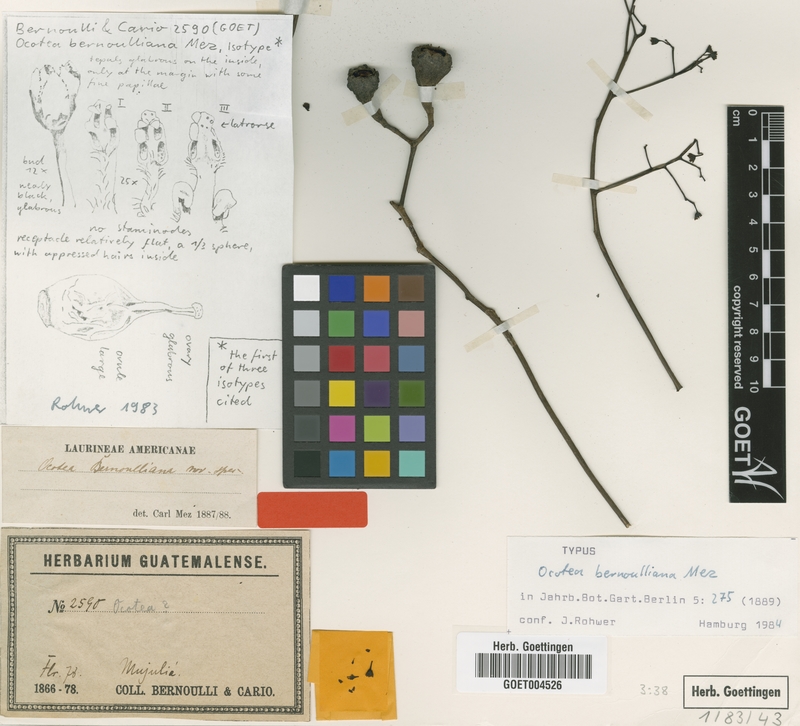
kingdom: Plantae
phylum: Tracheophyta
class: Magnoliopsida
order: Laurales
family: Lauraceae
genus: Ocotea
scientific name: Ocotea bernoulliana
